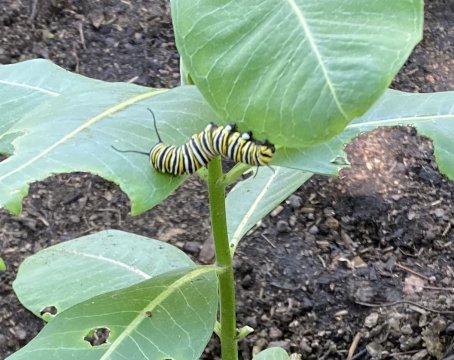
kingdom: Animalia
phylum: Arthropoda
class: Insecta
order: Lepidoptera
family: Nymphalidae
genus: Danaus
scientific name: Danaus plexippus
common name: Monarch
